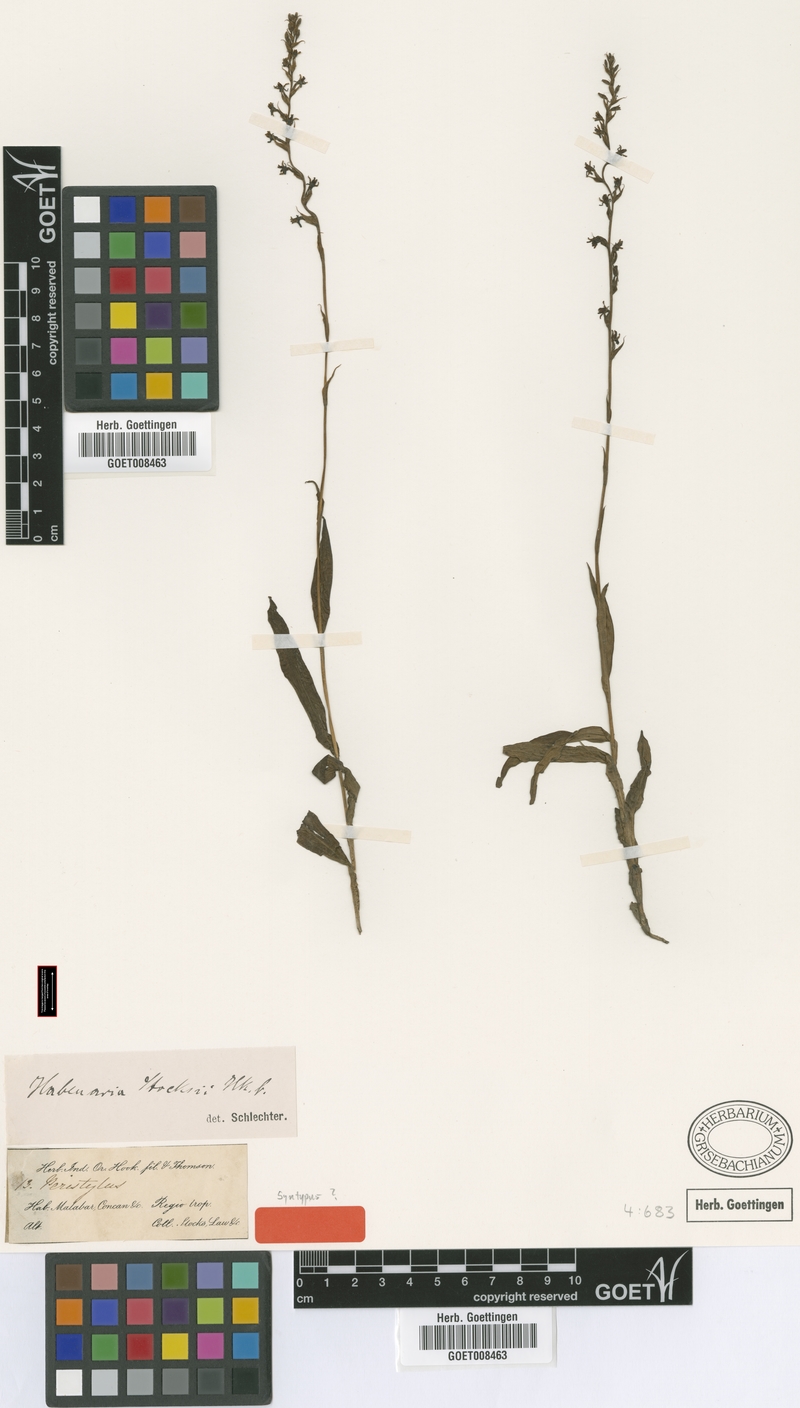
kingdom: Plantae
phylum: Tracheophyta
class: Liliopsida
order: Asparagales
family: Orchidaceae
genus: Peristylus
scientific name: Peristylus stocksii
